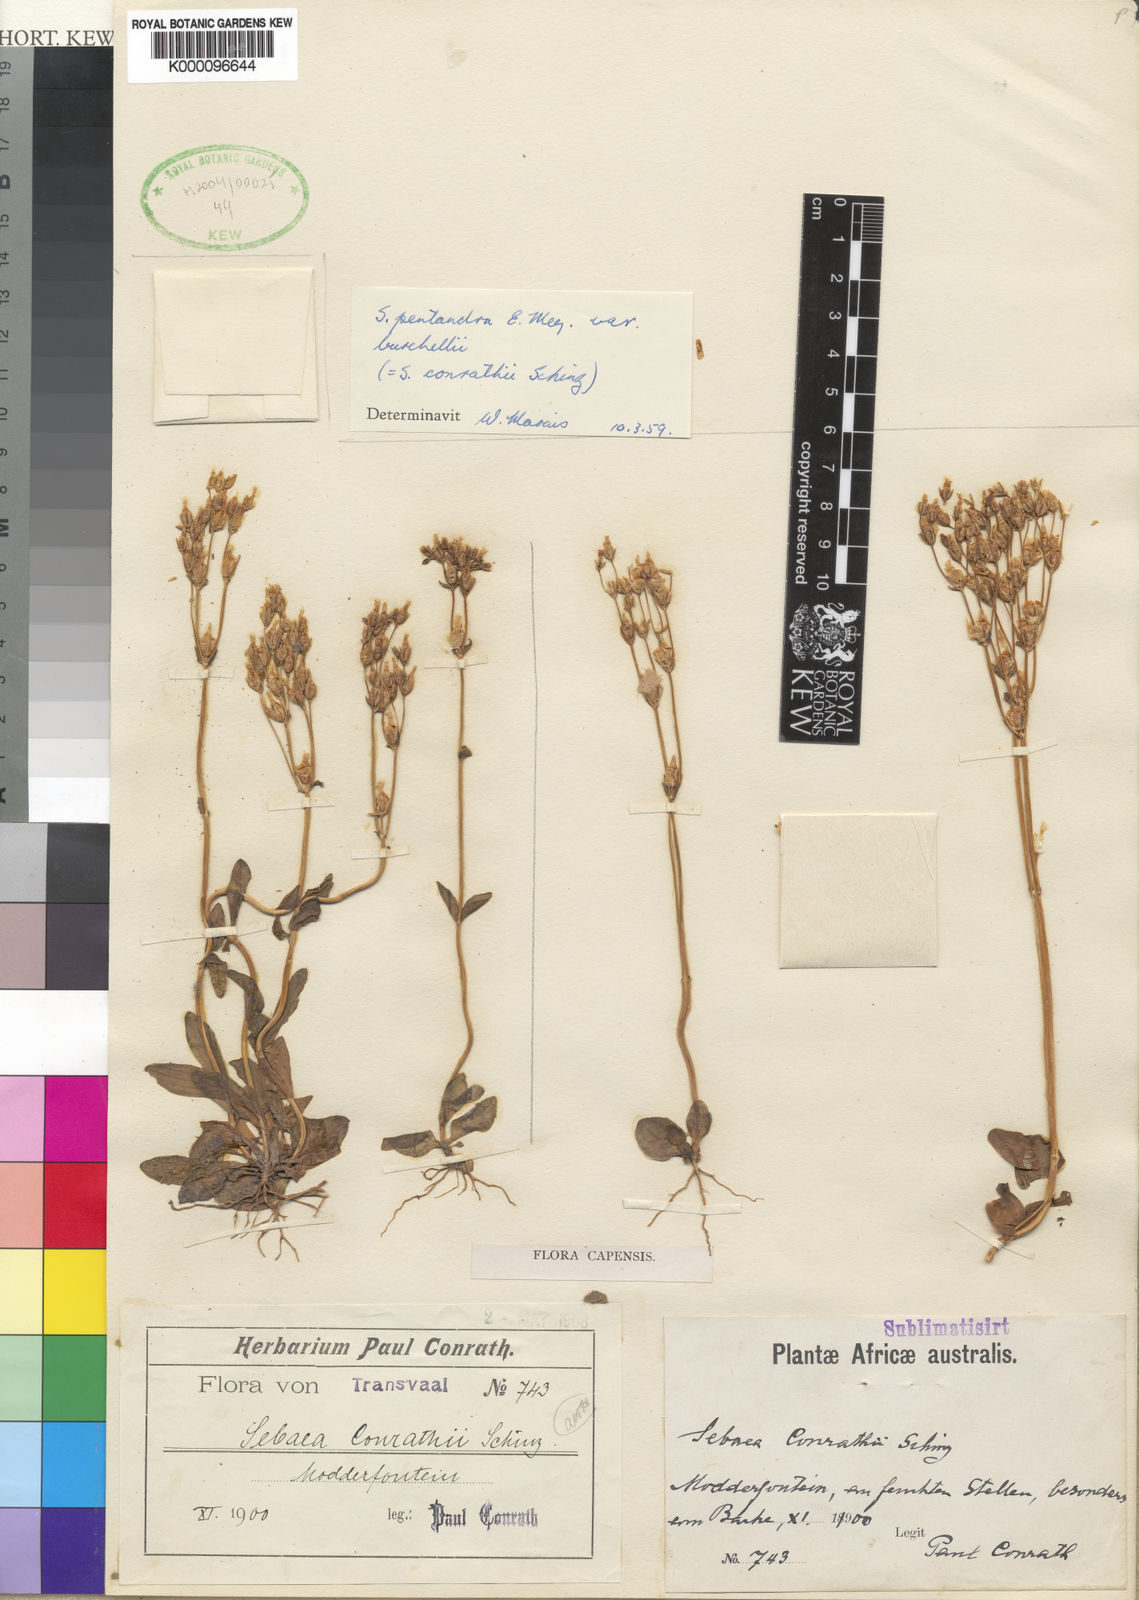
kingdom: Plantae
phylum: Tracheophyta
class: Magnoliopsida
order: Gentianales
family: Gentianaceae
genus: Sebaea
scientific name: Sebaea pentandra
